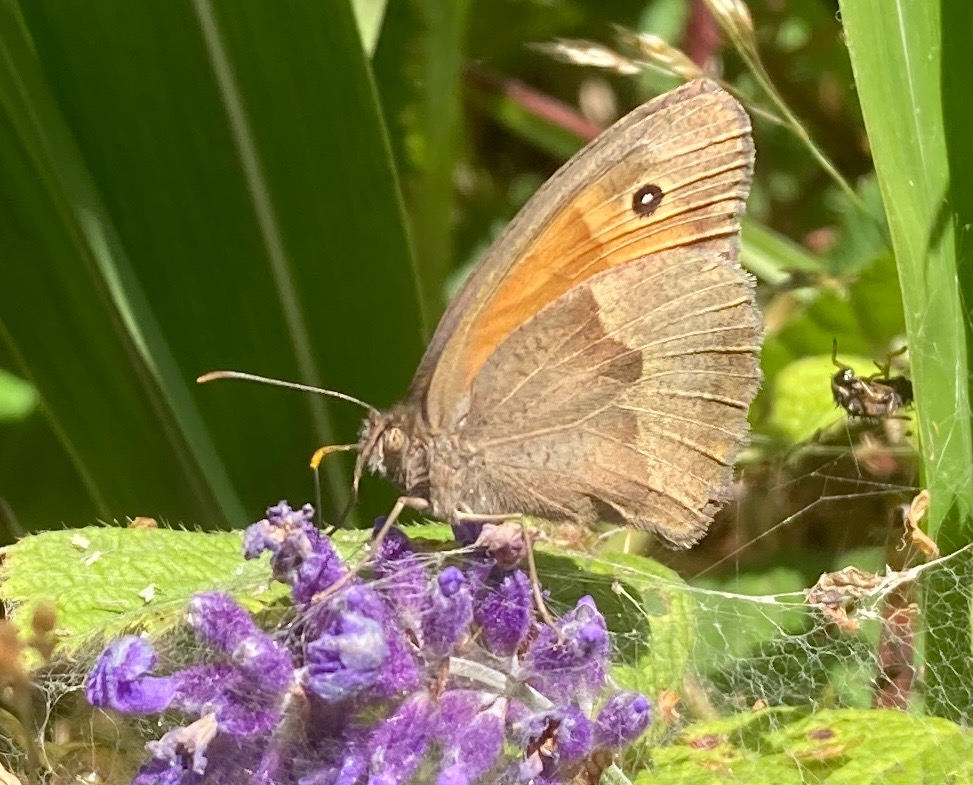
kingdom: Animalia
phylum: Arthropoda
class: Insecta
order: Lepidoptera
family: Nymphalidae
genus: Maniola
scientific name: Maniola jurtina
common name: Græsrandøje
